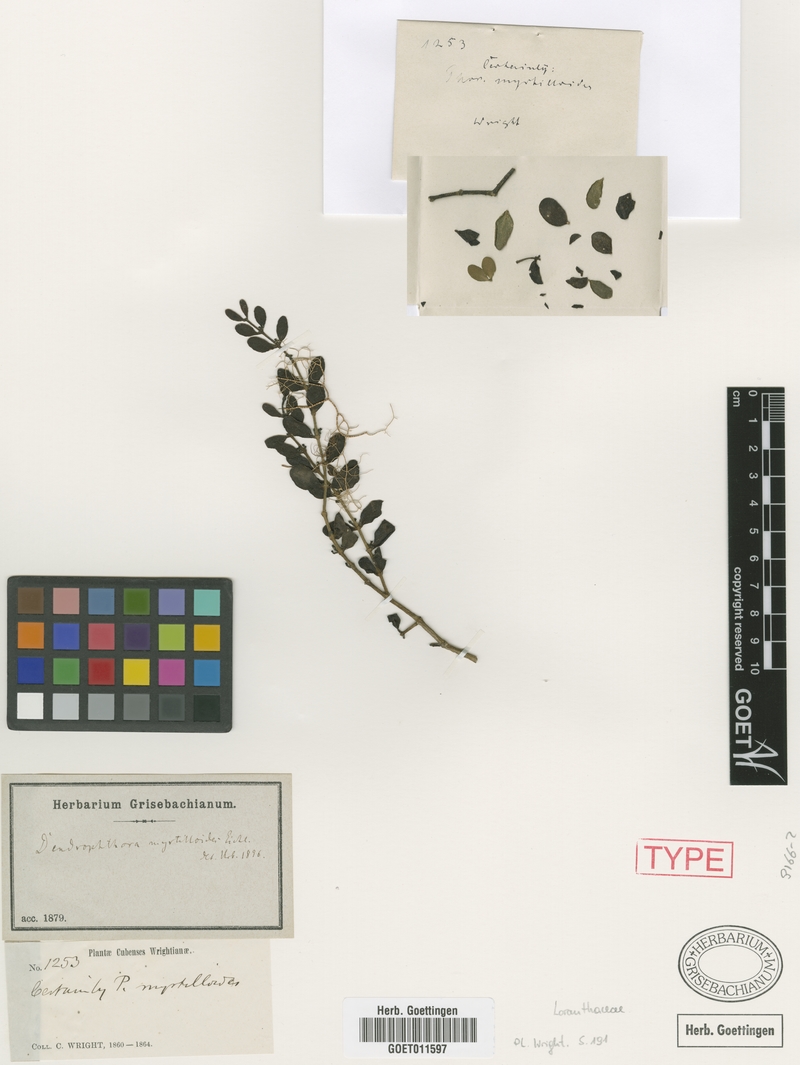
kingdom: Plantae
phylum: Tracheophyta
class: Magnoliopsida
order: Santalales
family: Viscaceae
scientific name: Viscaceae
